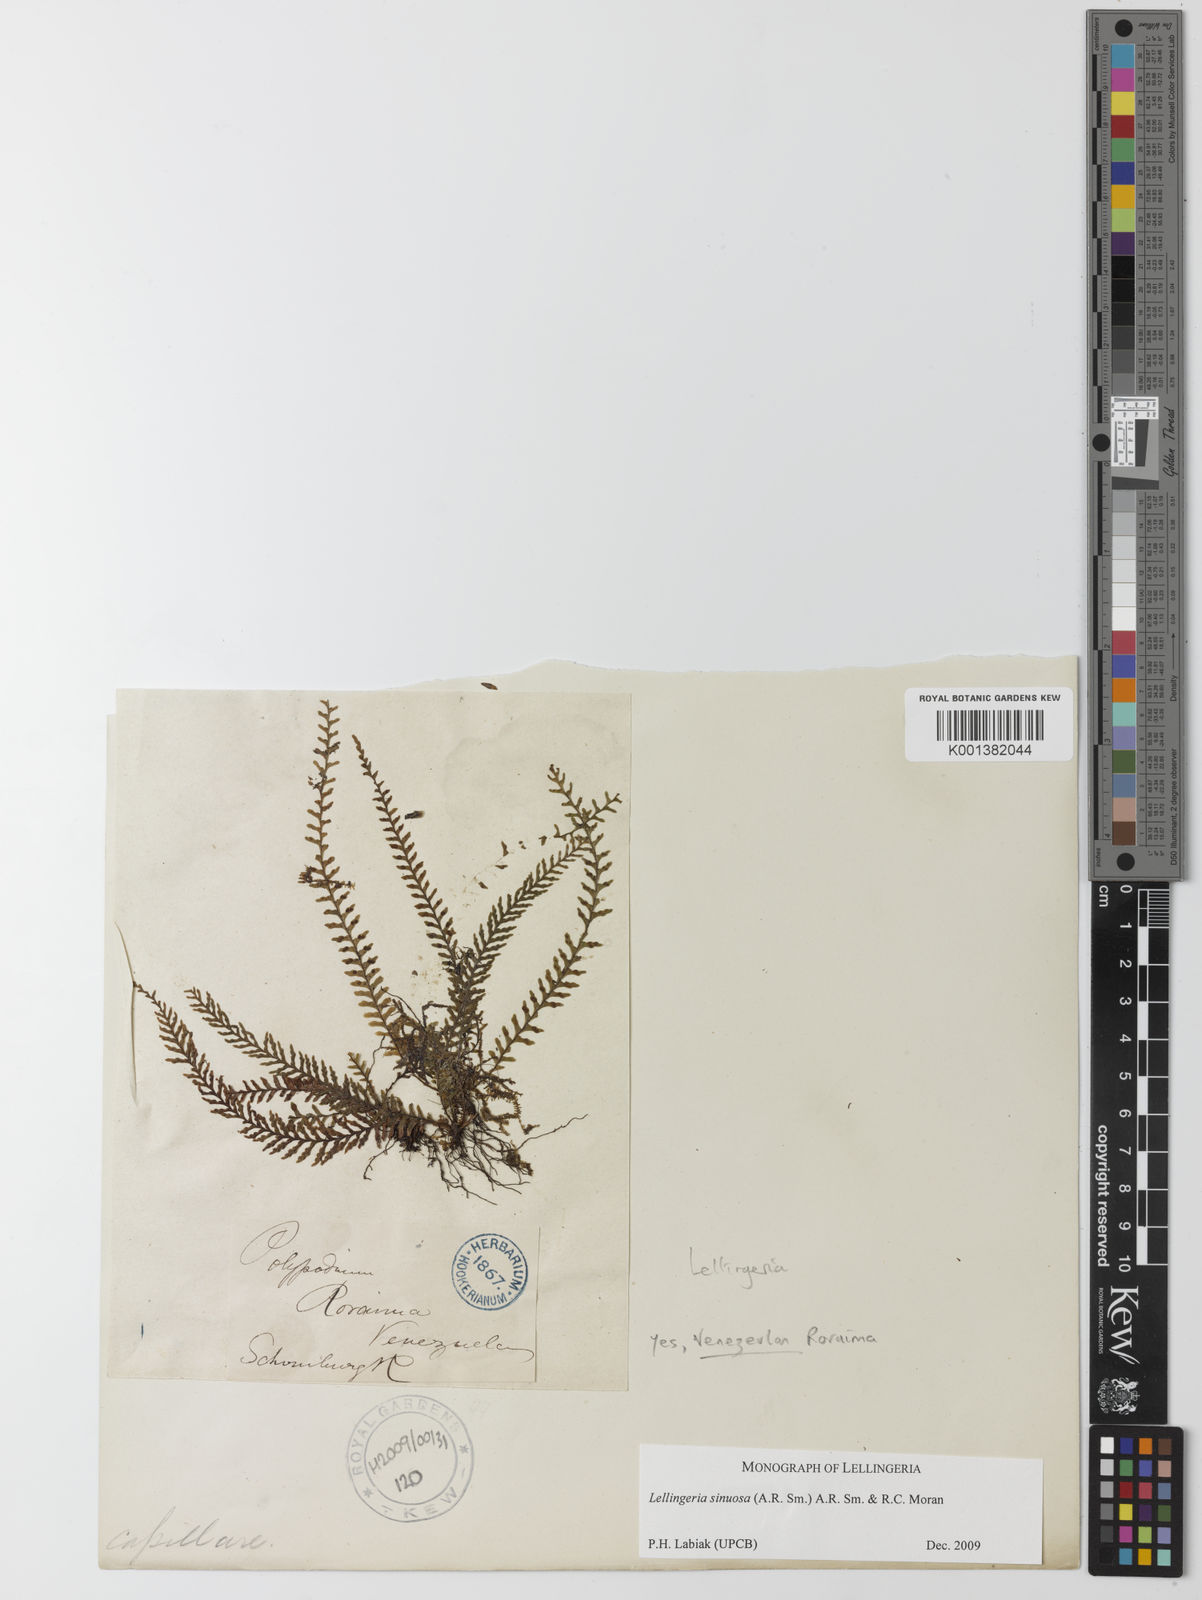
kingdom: Plantae
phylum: Tracheophyta
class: Polypodiopsida
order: Polypodiales
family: Polypodiaceae
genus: Lellingeria
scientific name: Lellingeria sinuosa
